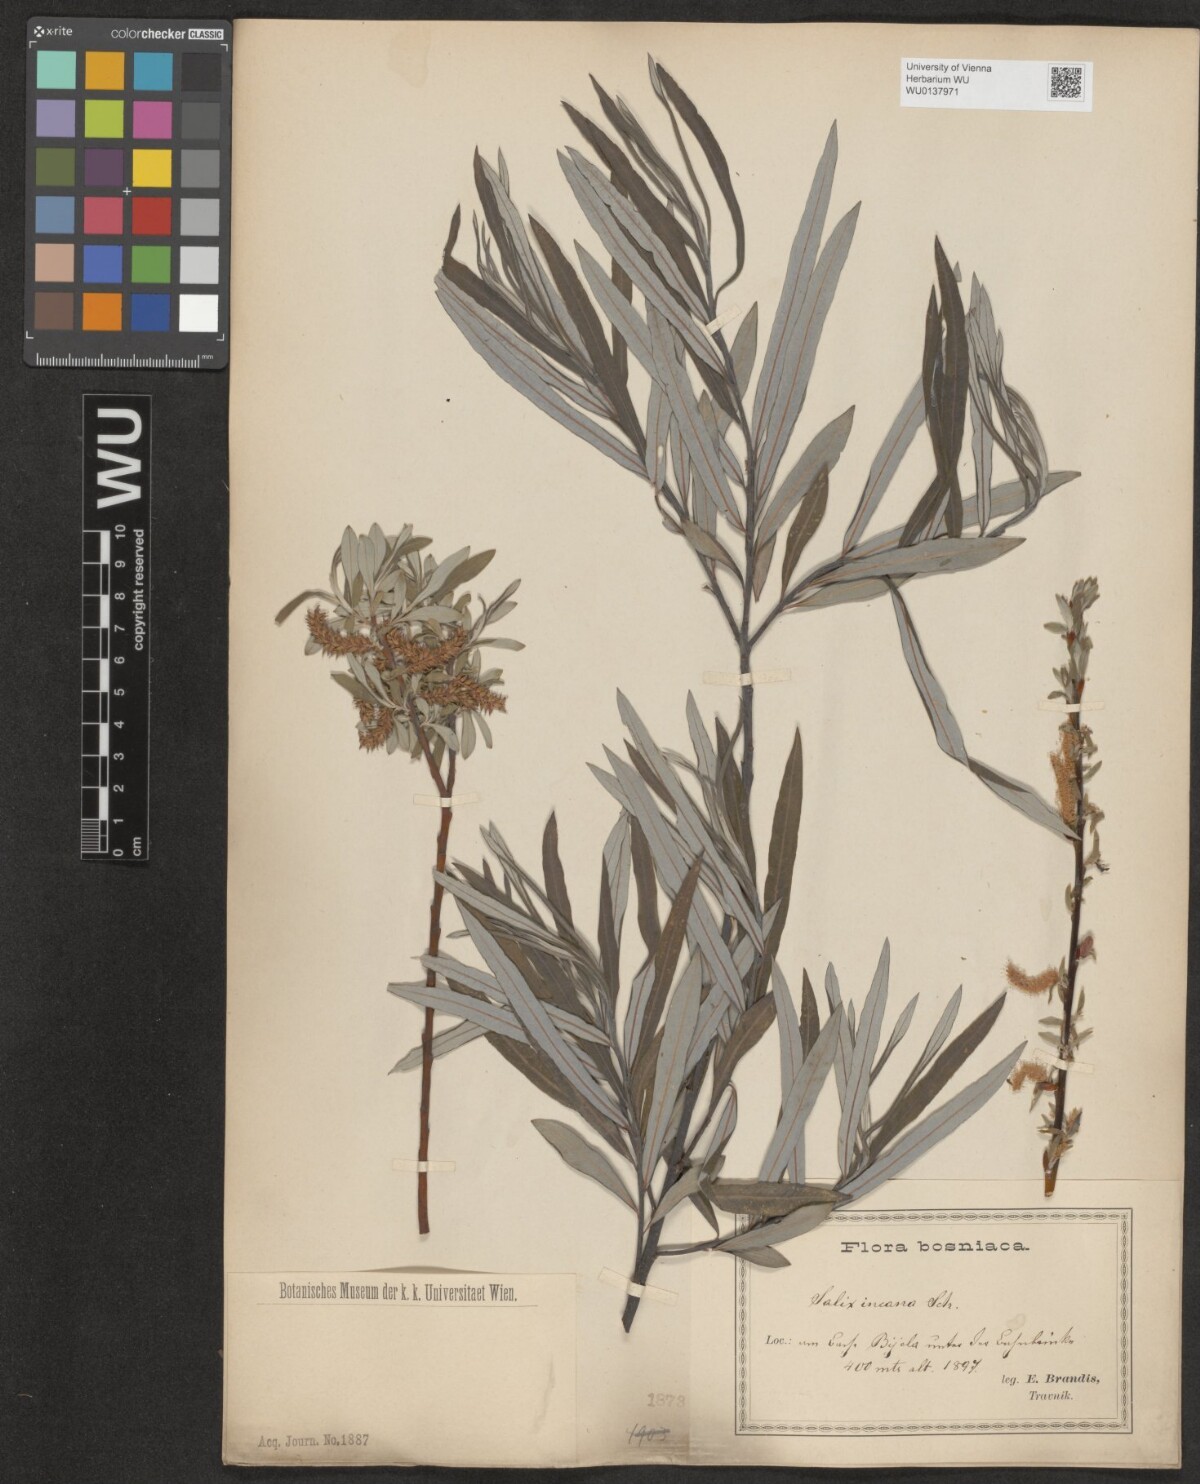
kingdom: Plantae
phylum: Tracheophyta
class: Magnoliopsida
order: Malpighiales
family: Salicaceae
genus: Salix
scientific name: Salix eleagnos
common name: Elaeagnus willow
